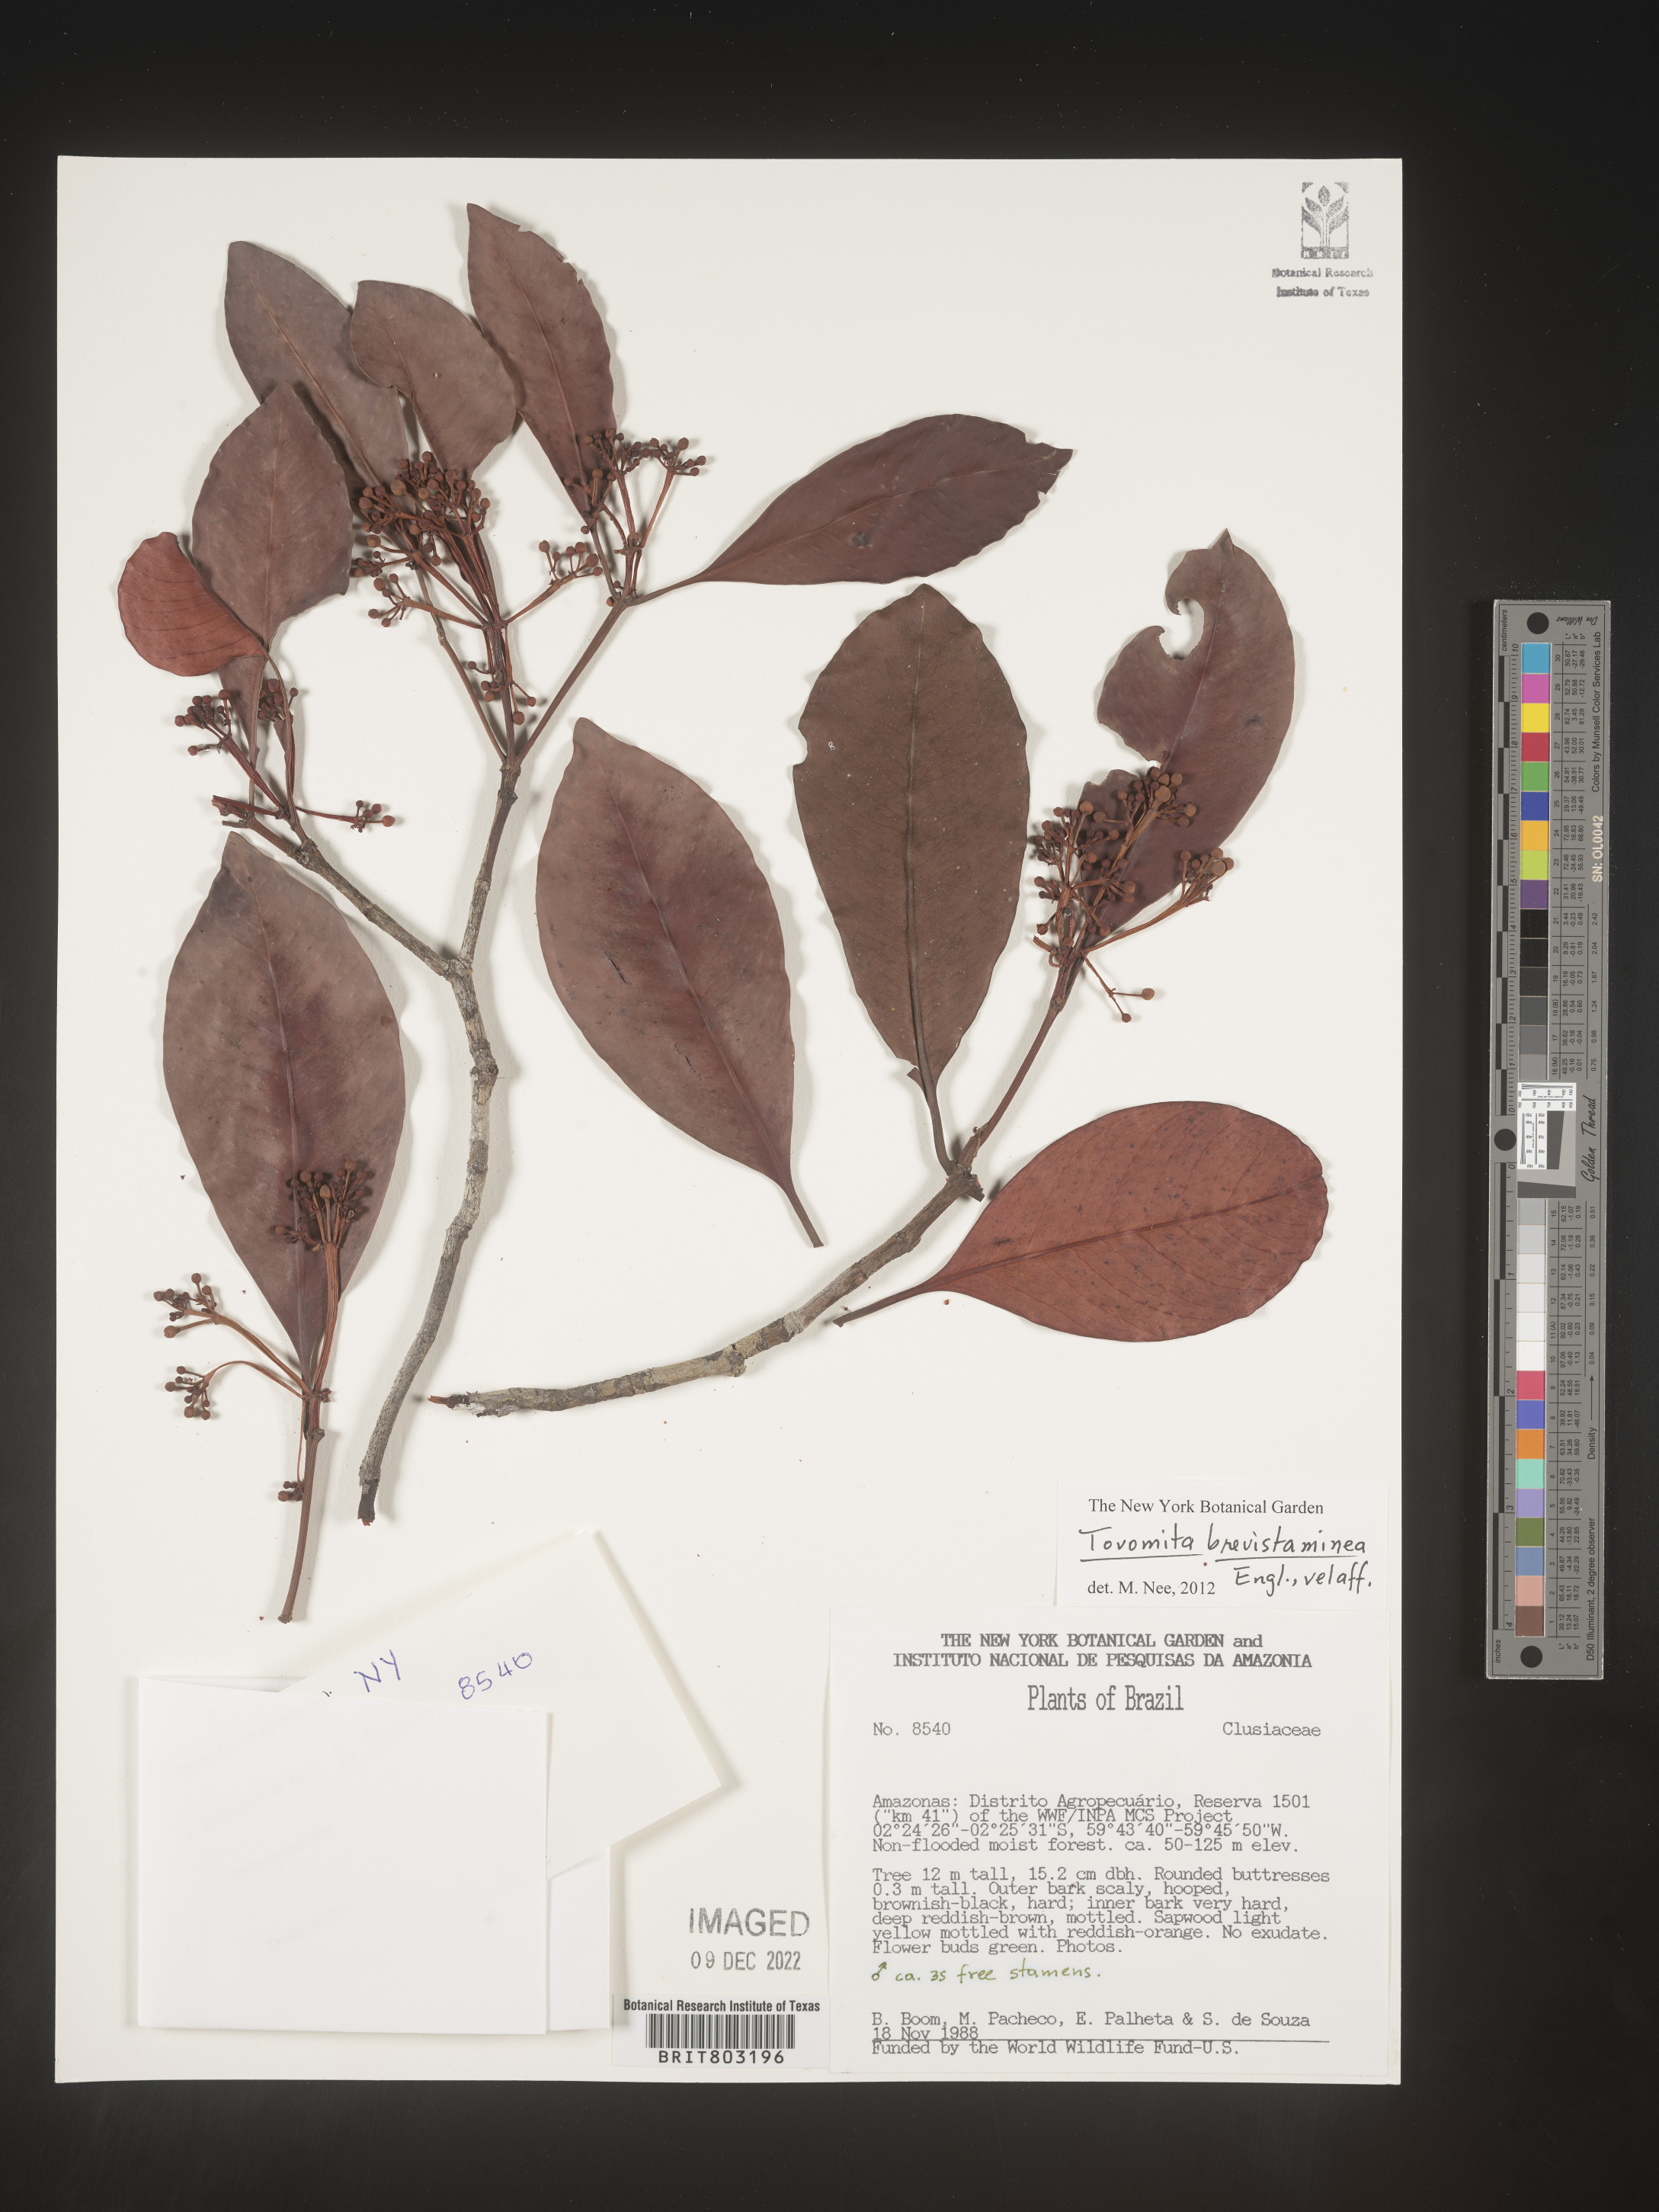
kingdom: Plantae
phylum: Tracheophyta
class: Magnoliopsida
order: Malpighiales
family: Clusiaceae
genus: Tovomita
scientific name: Tovomita
